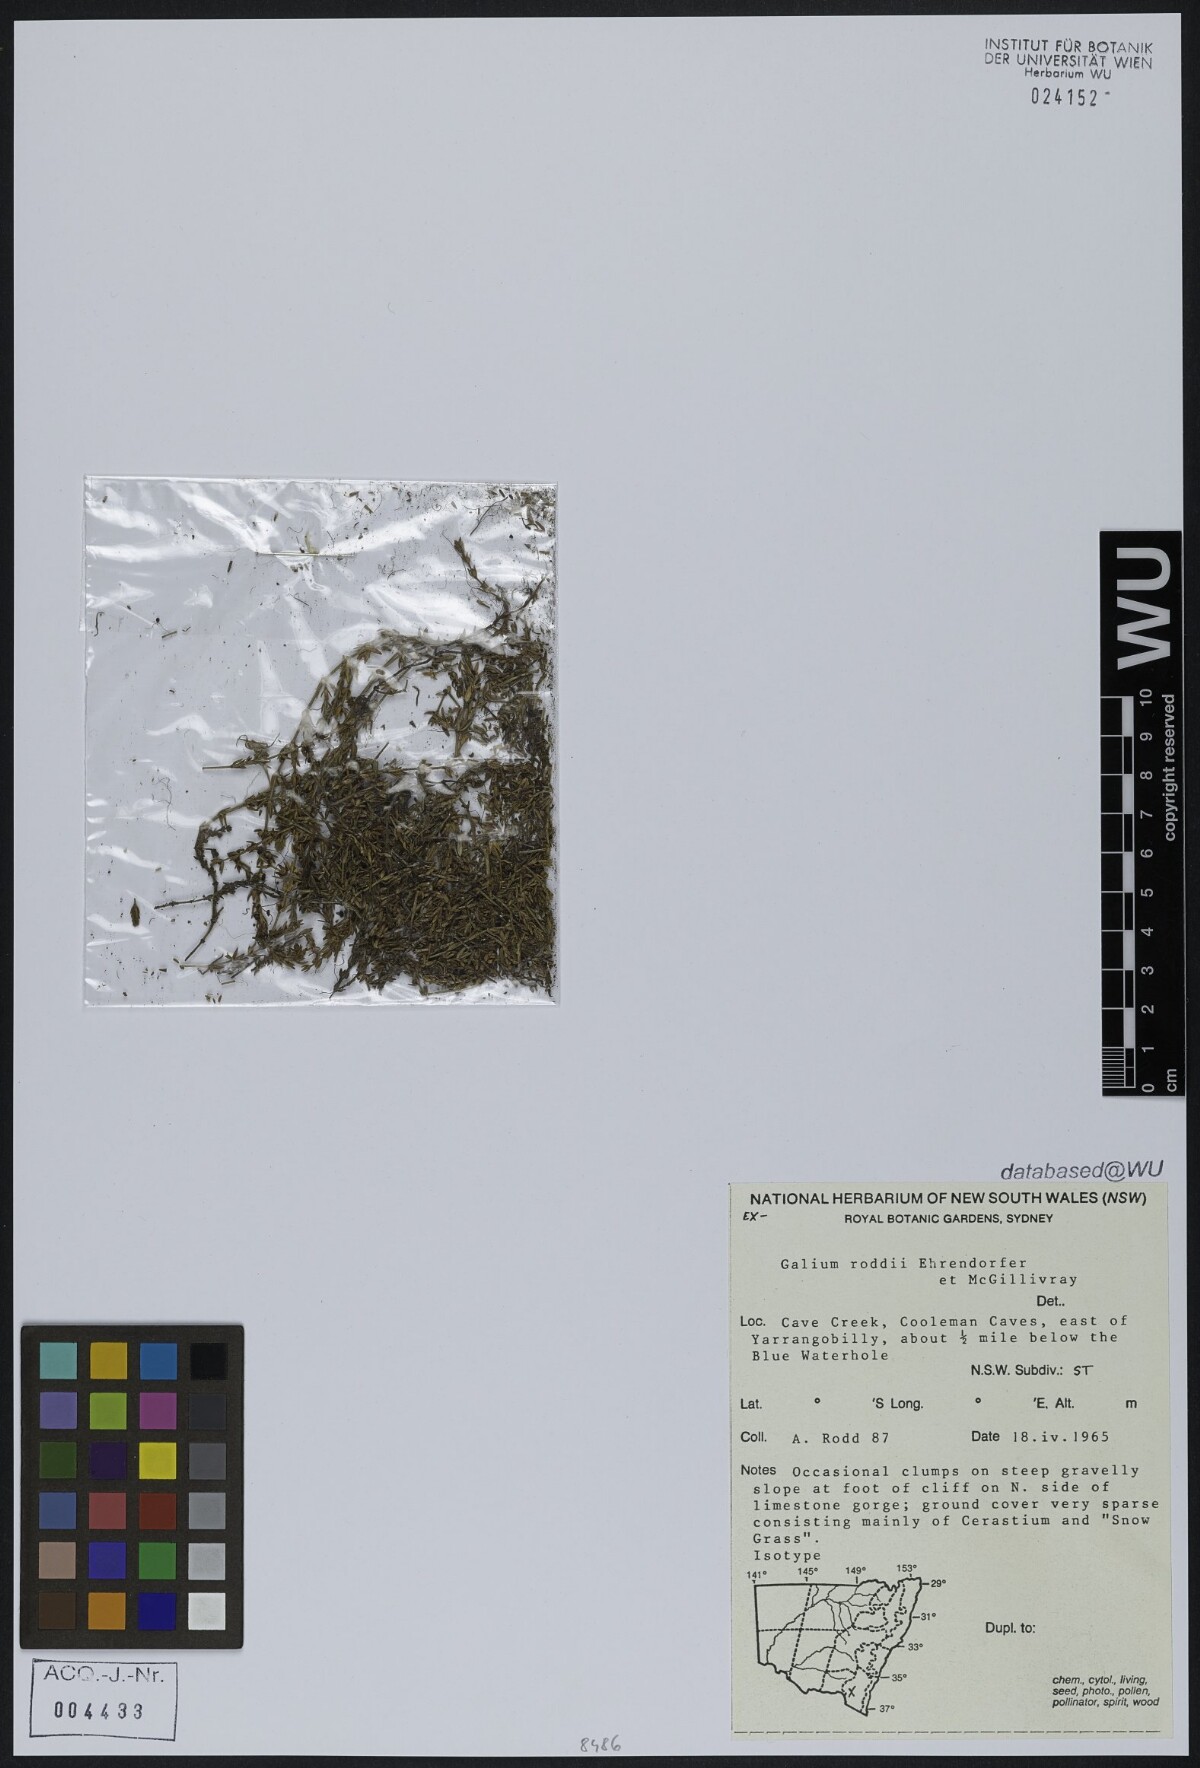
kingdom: Plantae
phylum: Tracheophyta
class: Magnoliopsida
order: Gentianales
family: Rubiaceae
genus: Galium
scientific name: Galium roddii
